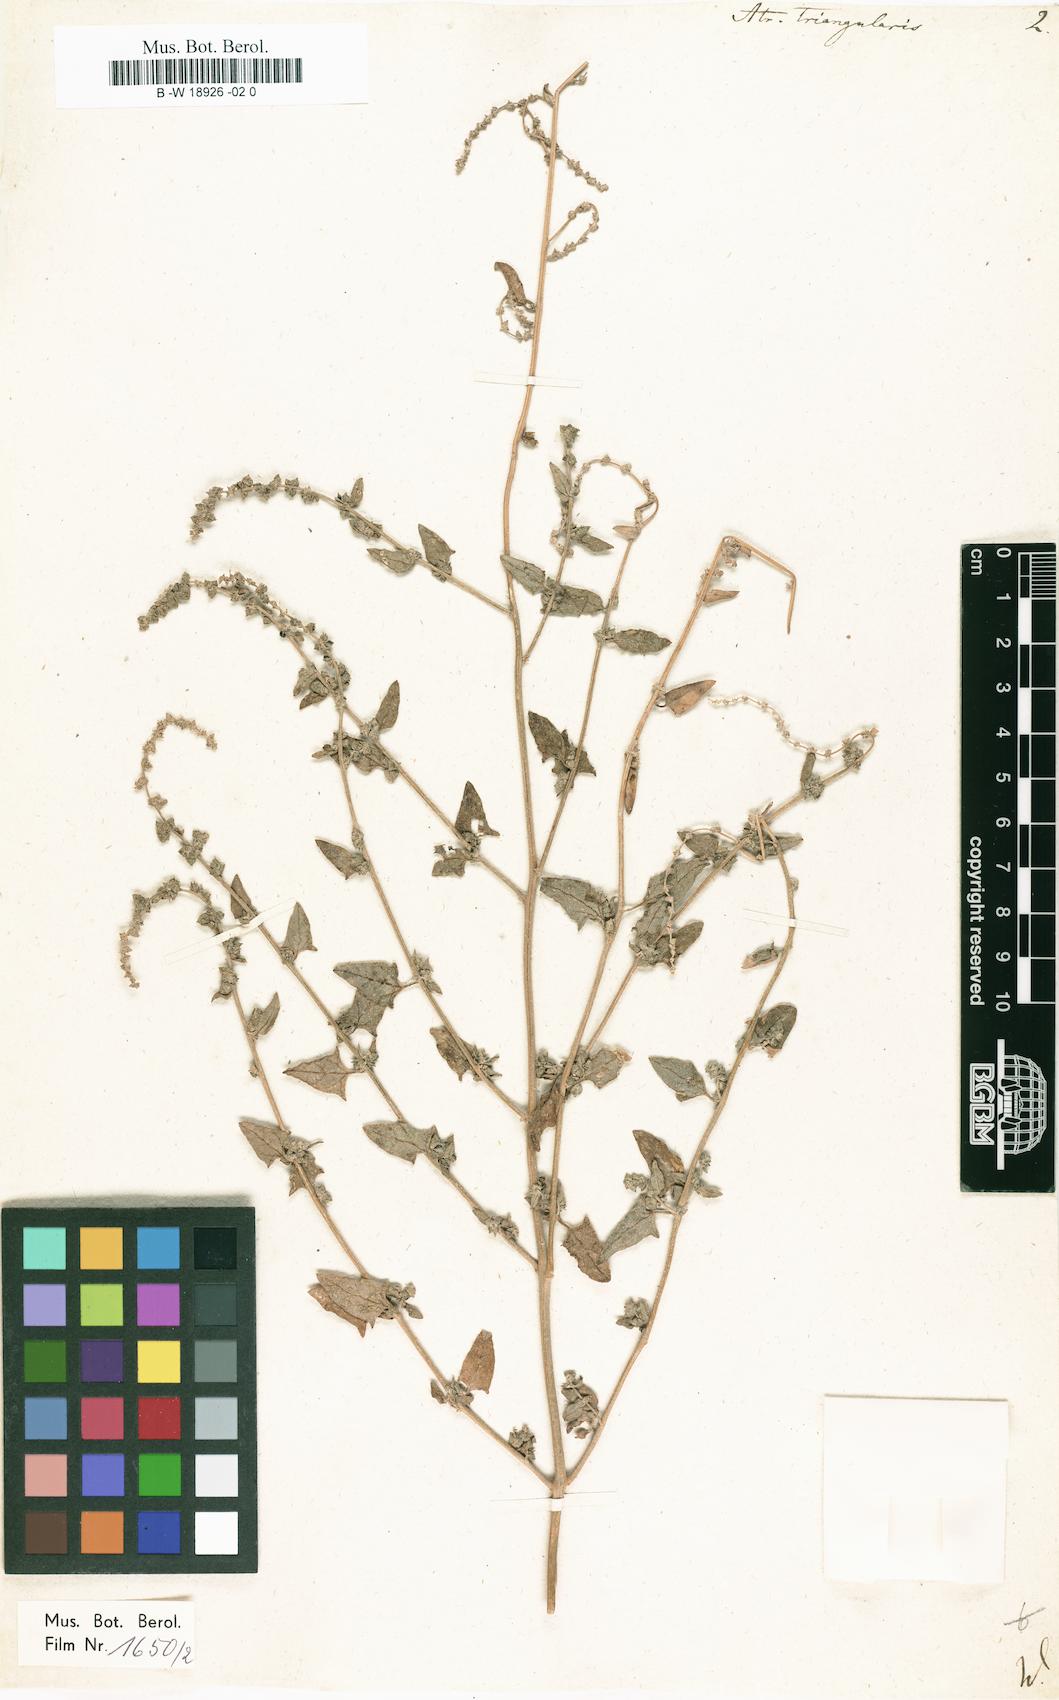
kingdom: Plantae
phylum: Tracheophyta
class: Magnoliopsida
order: Caryophyllales
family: Amaranthaceae
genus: Atriplex
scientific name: Atriplex prostrata
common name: Spear-leaved orache
